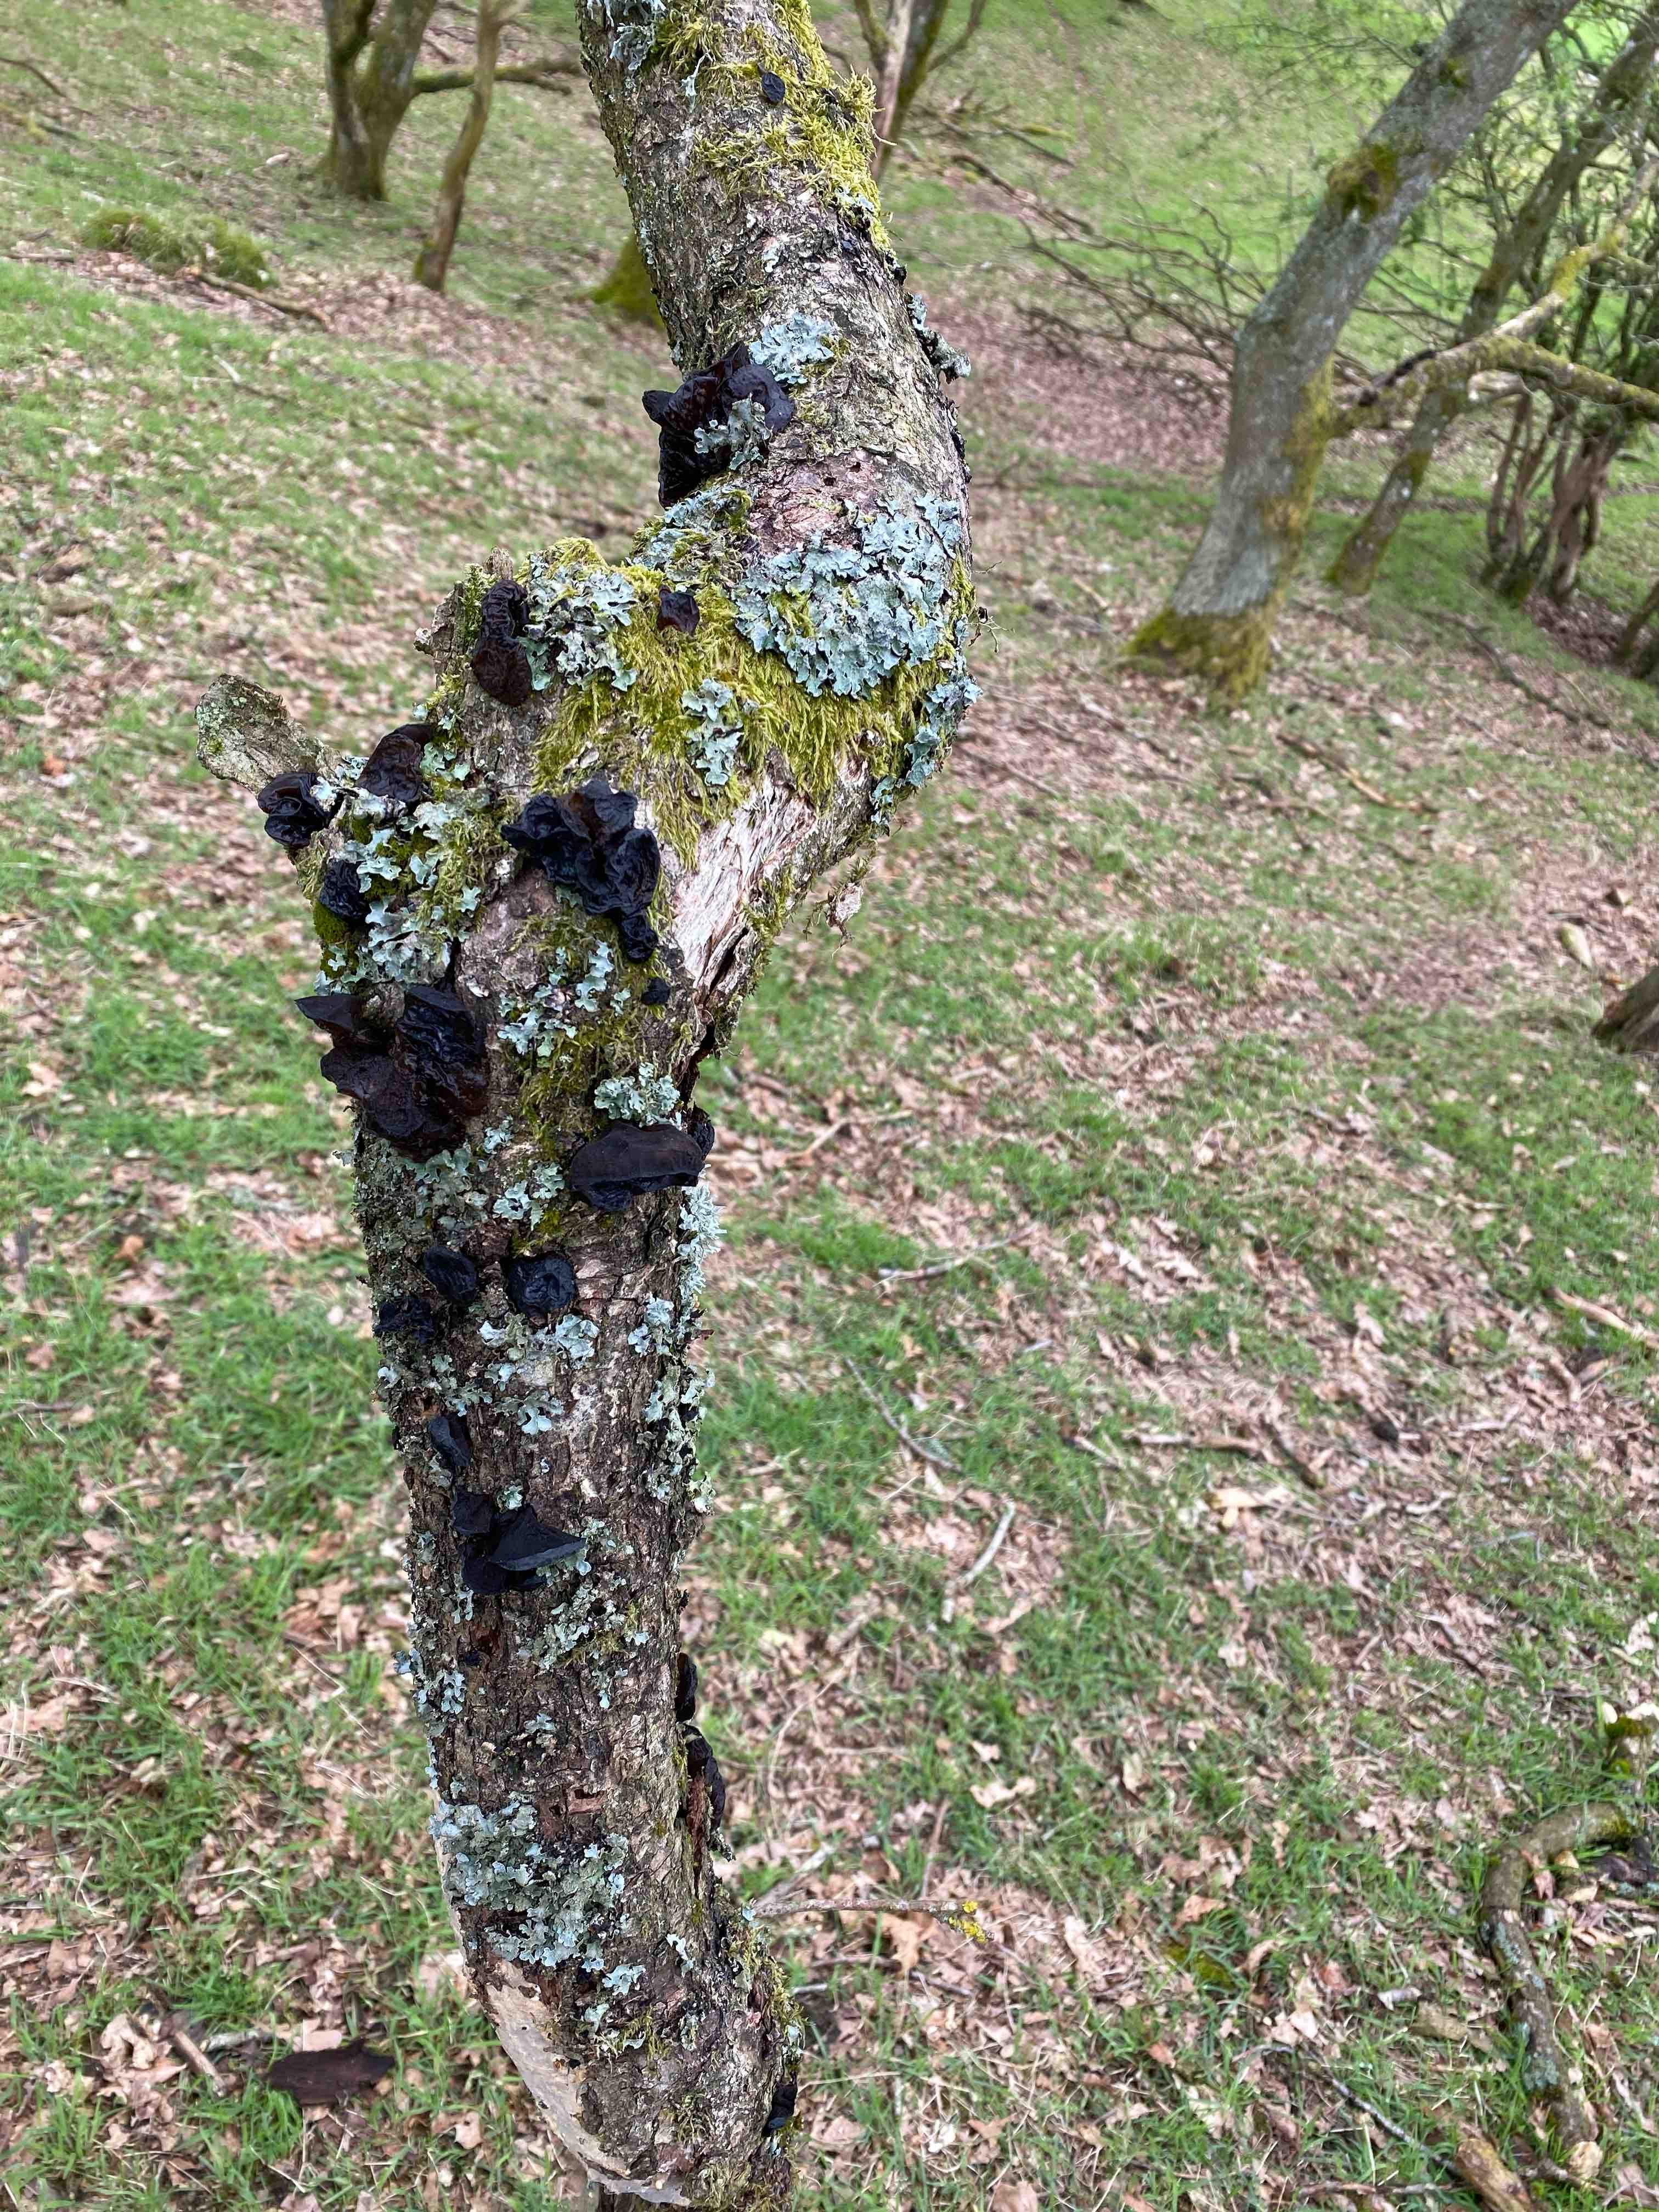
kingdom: Fungi
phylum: Basidiomycota
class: Agaricomycetes
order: Auriculariales
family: Auriculariaceae
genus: Exidia
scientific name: Exidia glandulosa
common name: ege-bævretop
